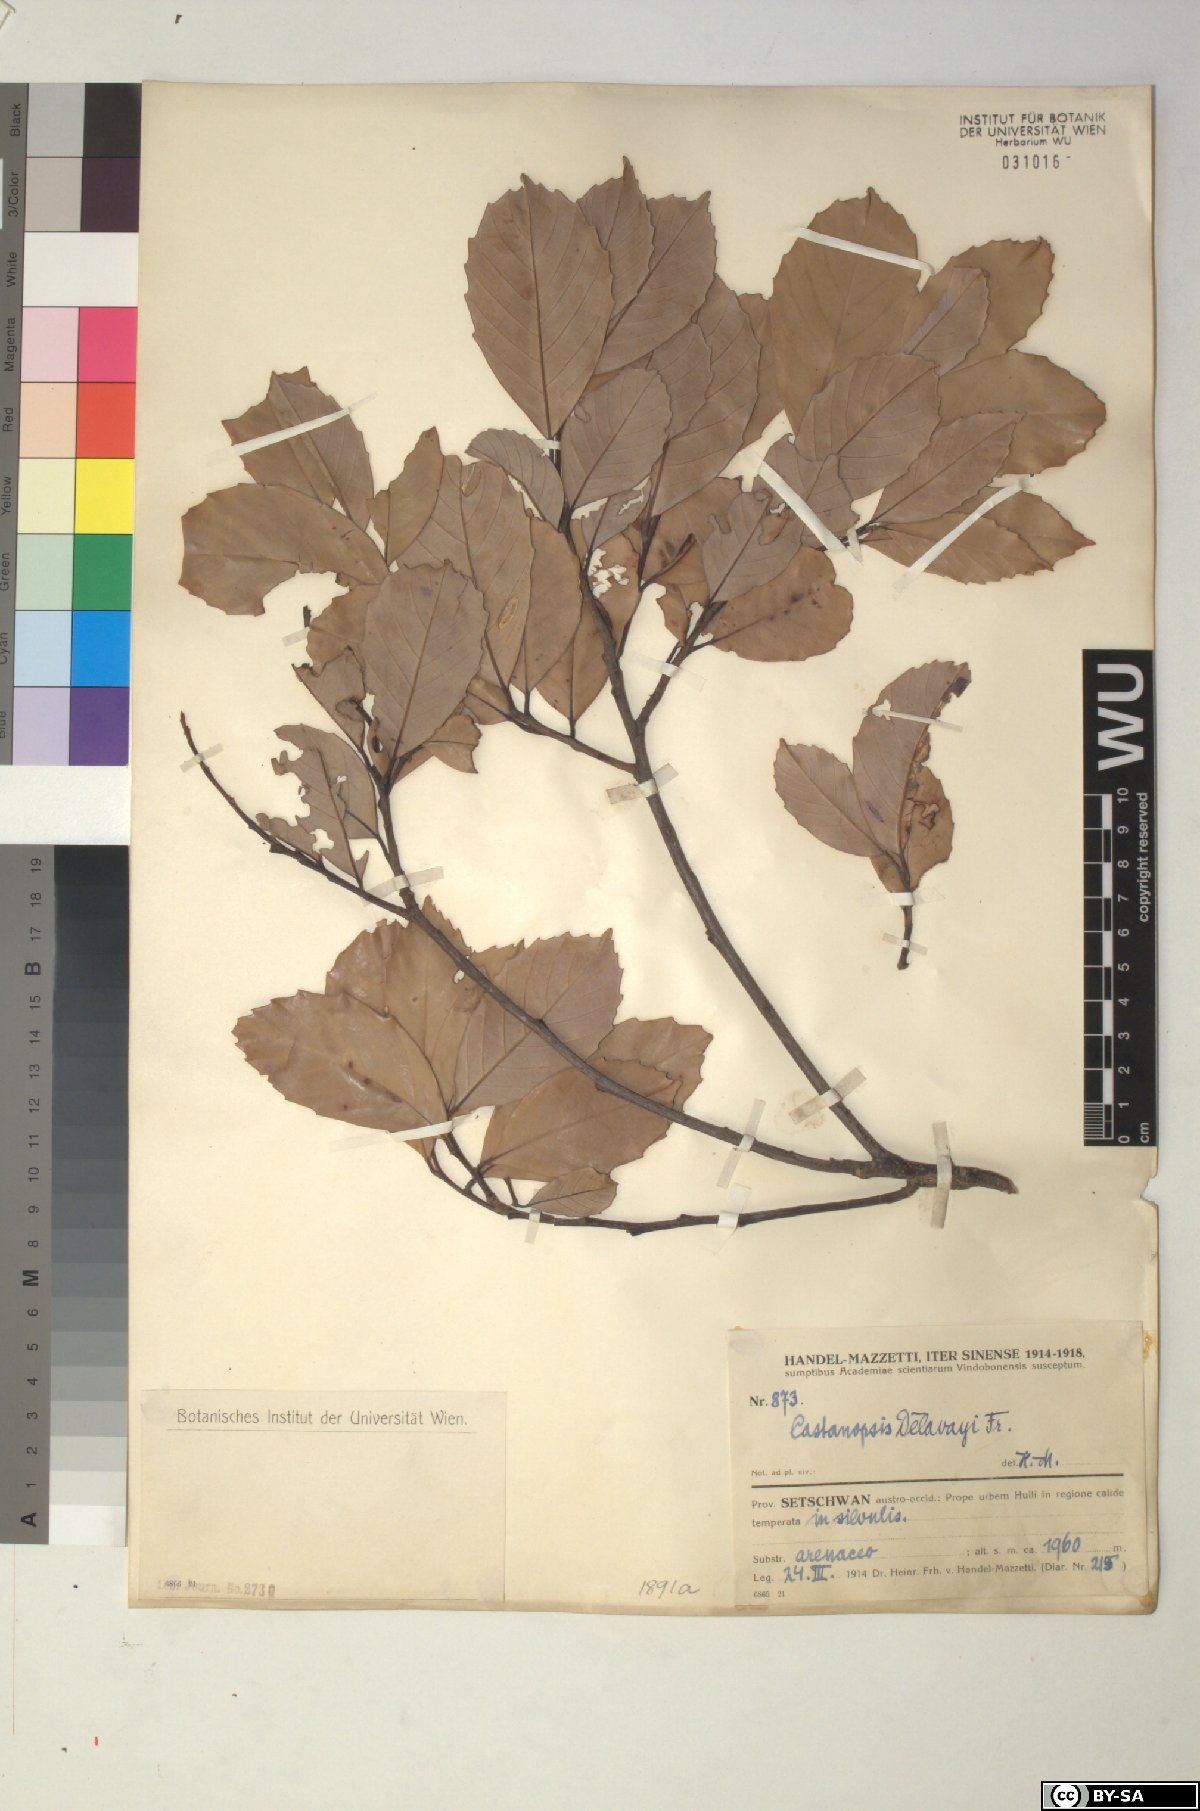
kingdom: Plantae
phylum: Tracheophyta
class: Magnoliopsida
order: Fagales
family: Fagaceae
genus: Castanopsis
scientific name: Castanopsis delavayi
